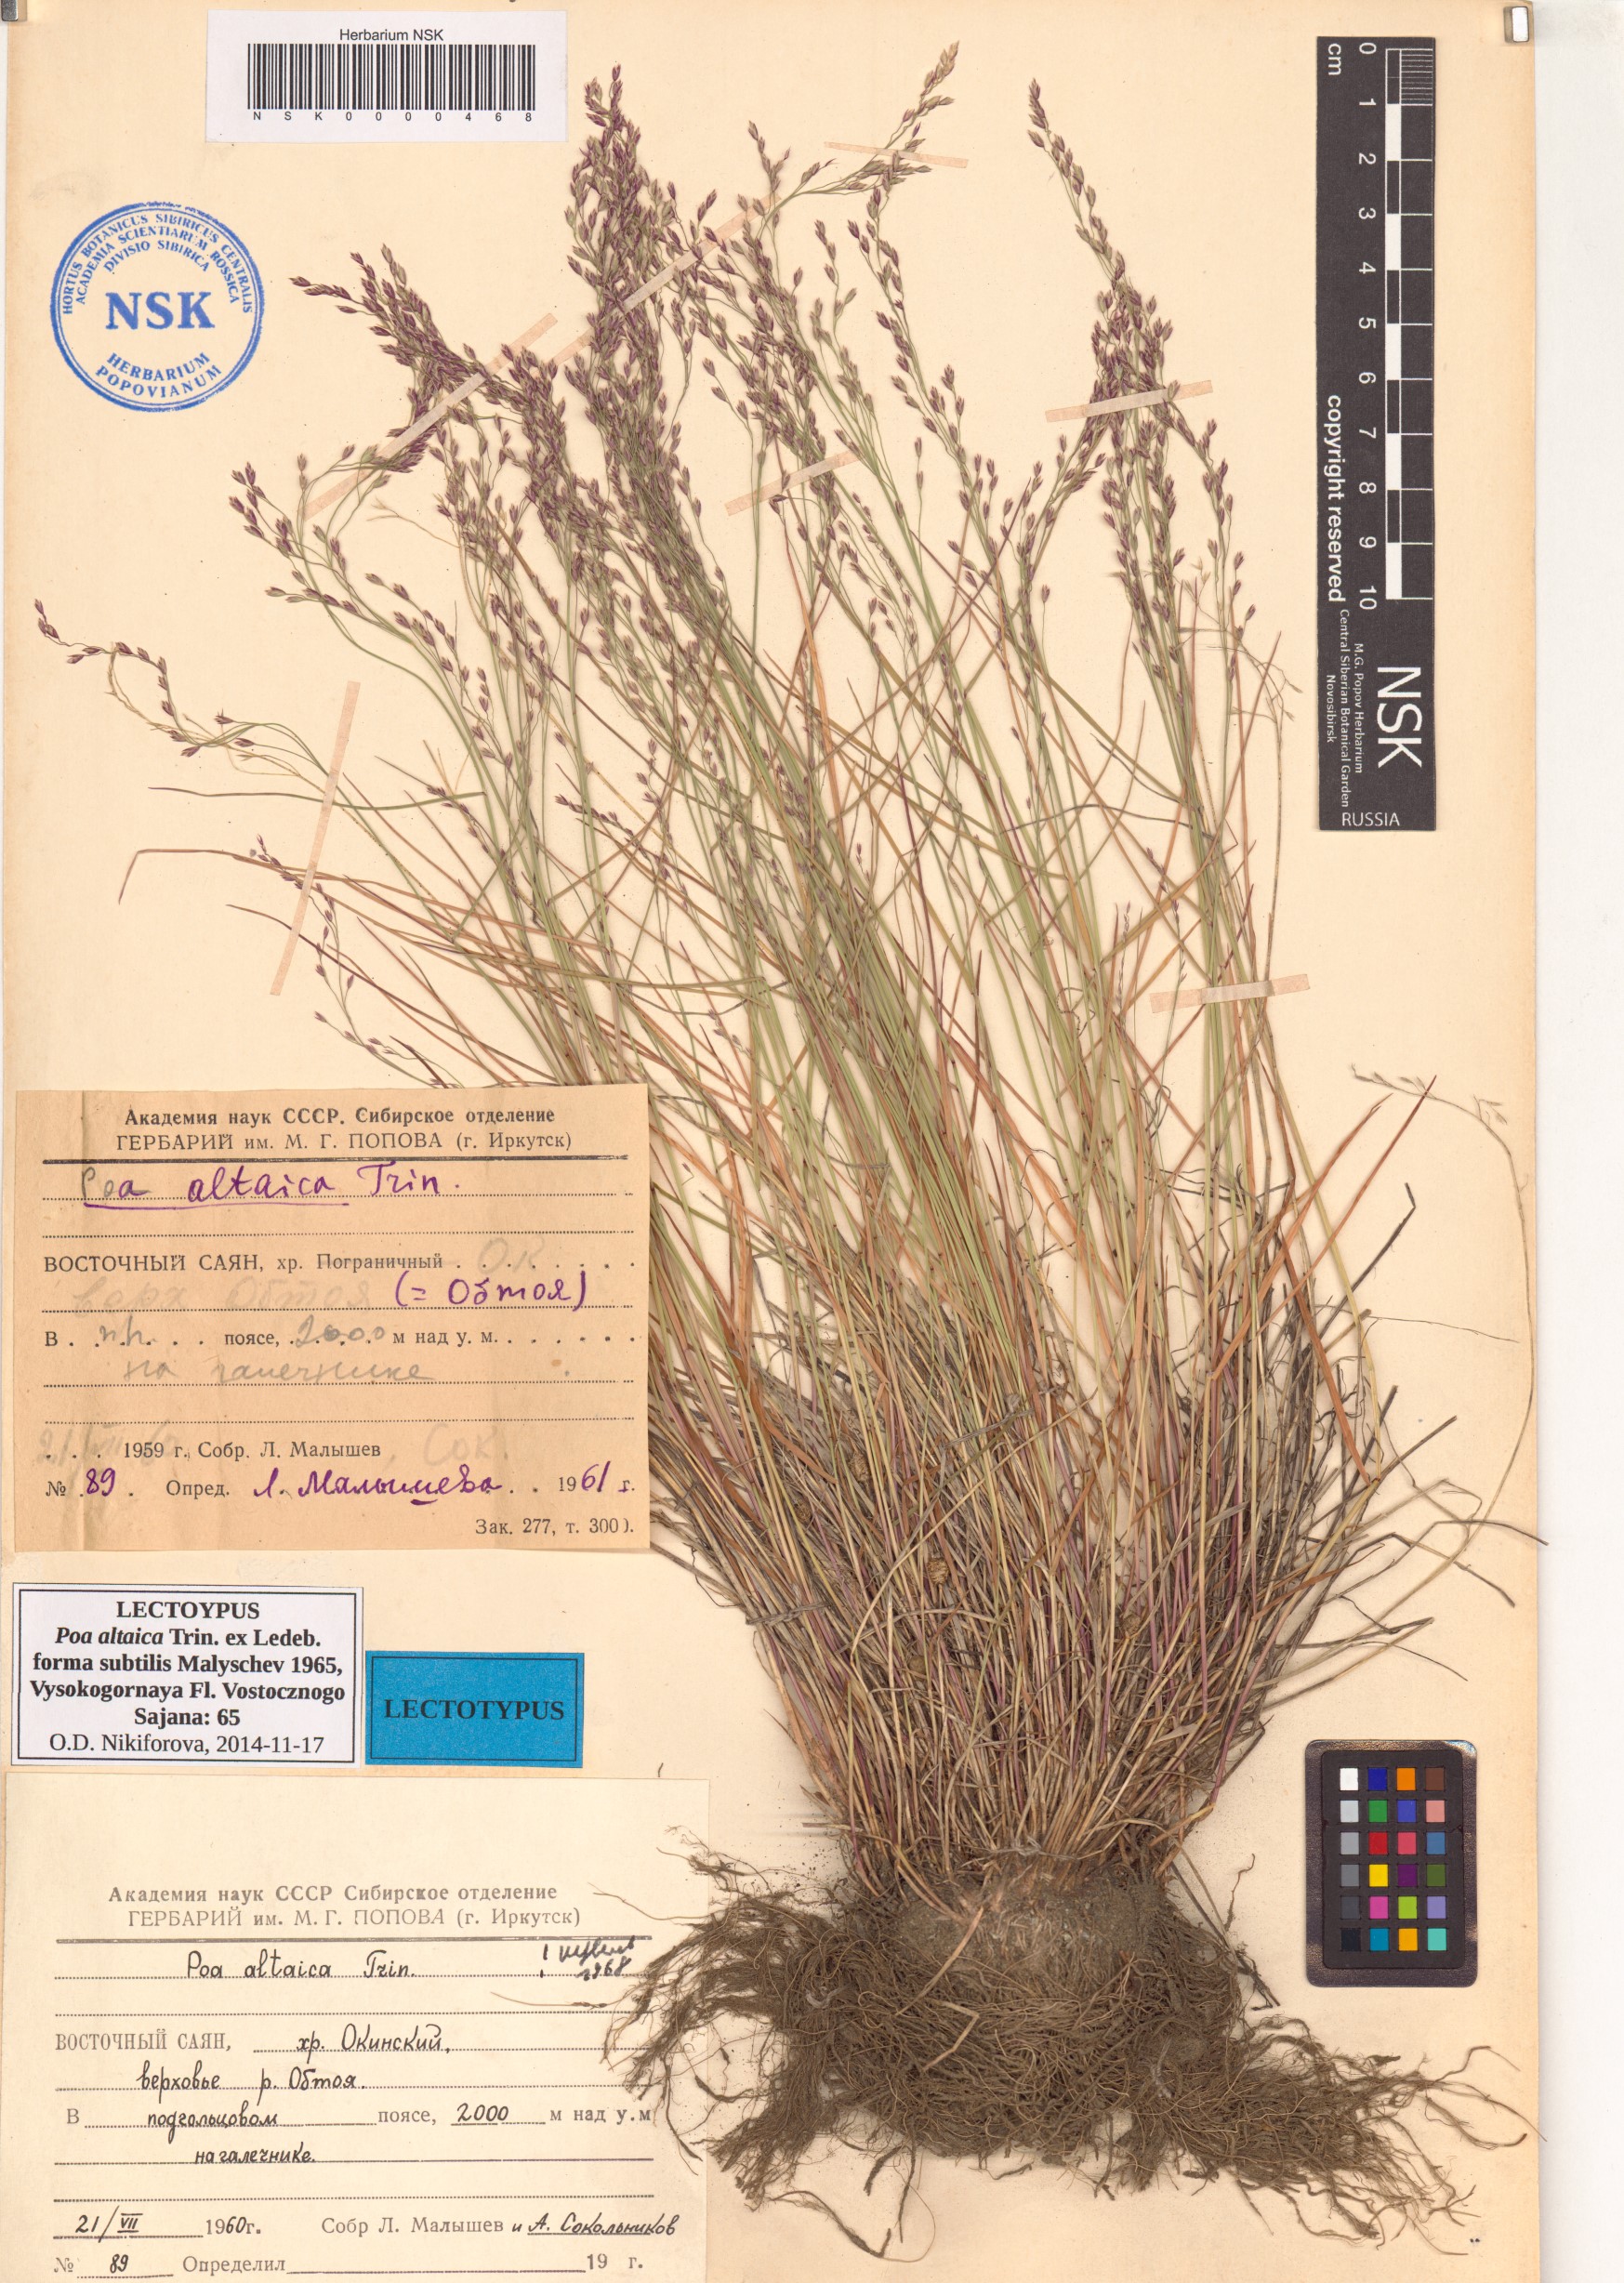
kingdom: Plantae
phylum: Tracheophyta
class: Liliopsida
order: Poales
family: Poaceae
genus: Poa
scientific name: Poa glauca
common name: Glaucous bluegrass
